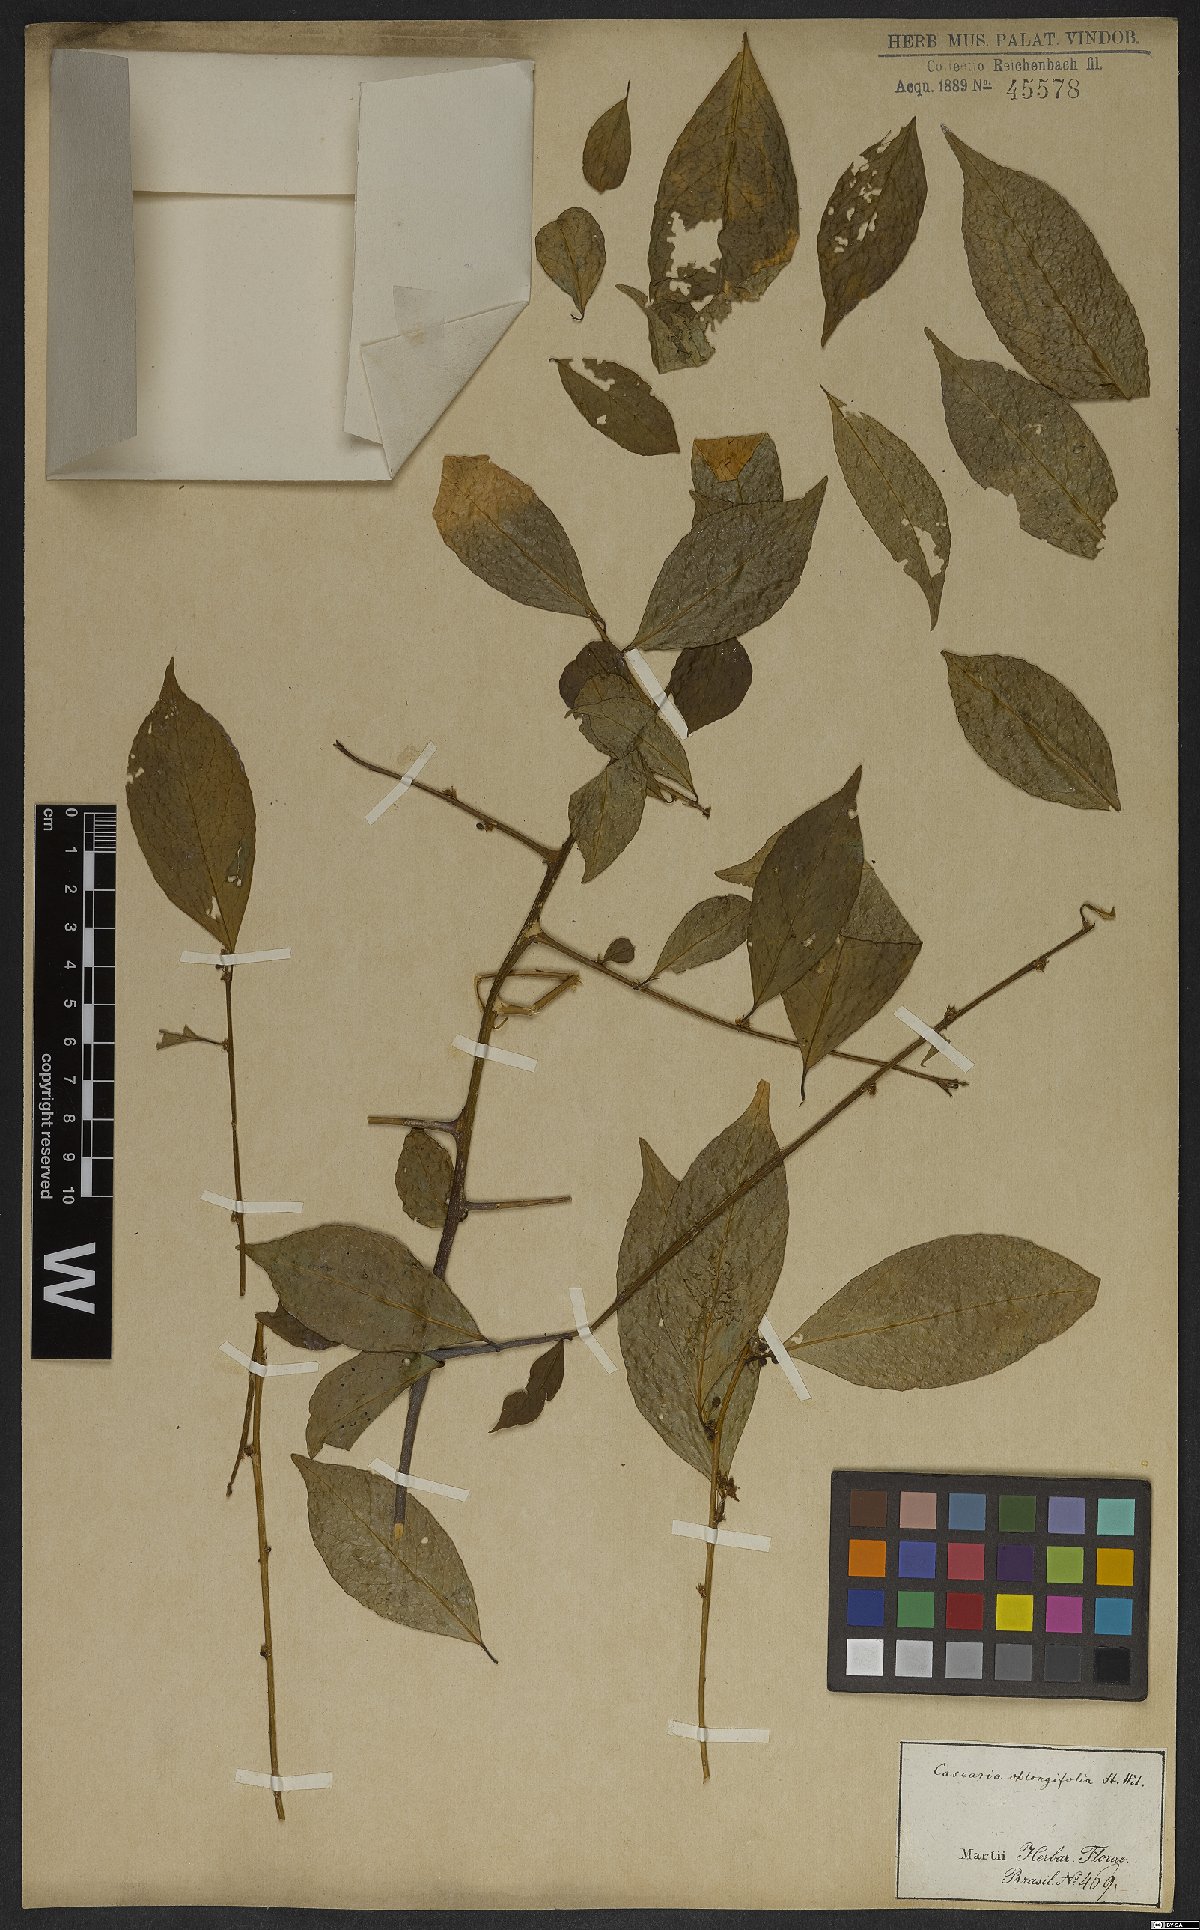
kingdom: Plantae
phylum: Tracheophyta
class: Magnoliopsida
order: Malpighiales
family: Salicaceae
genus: Casearia
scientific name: Casearia oblongifolia
